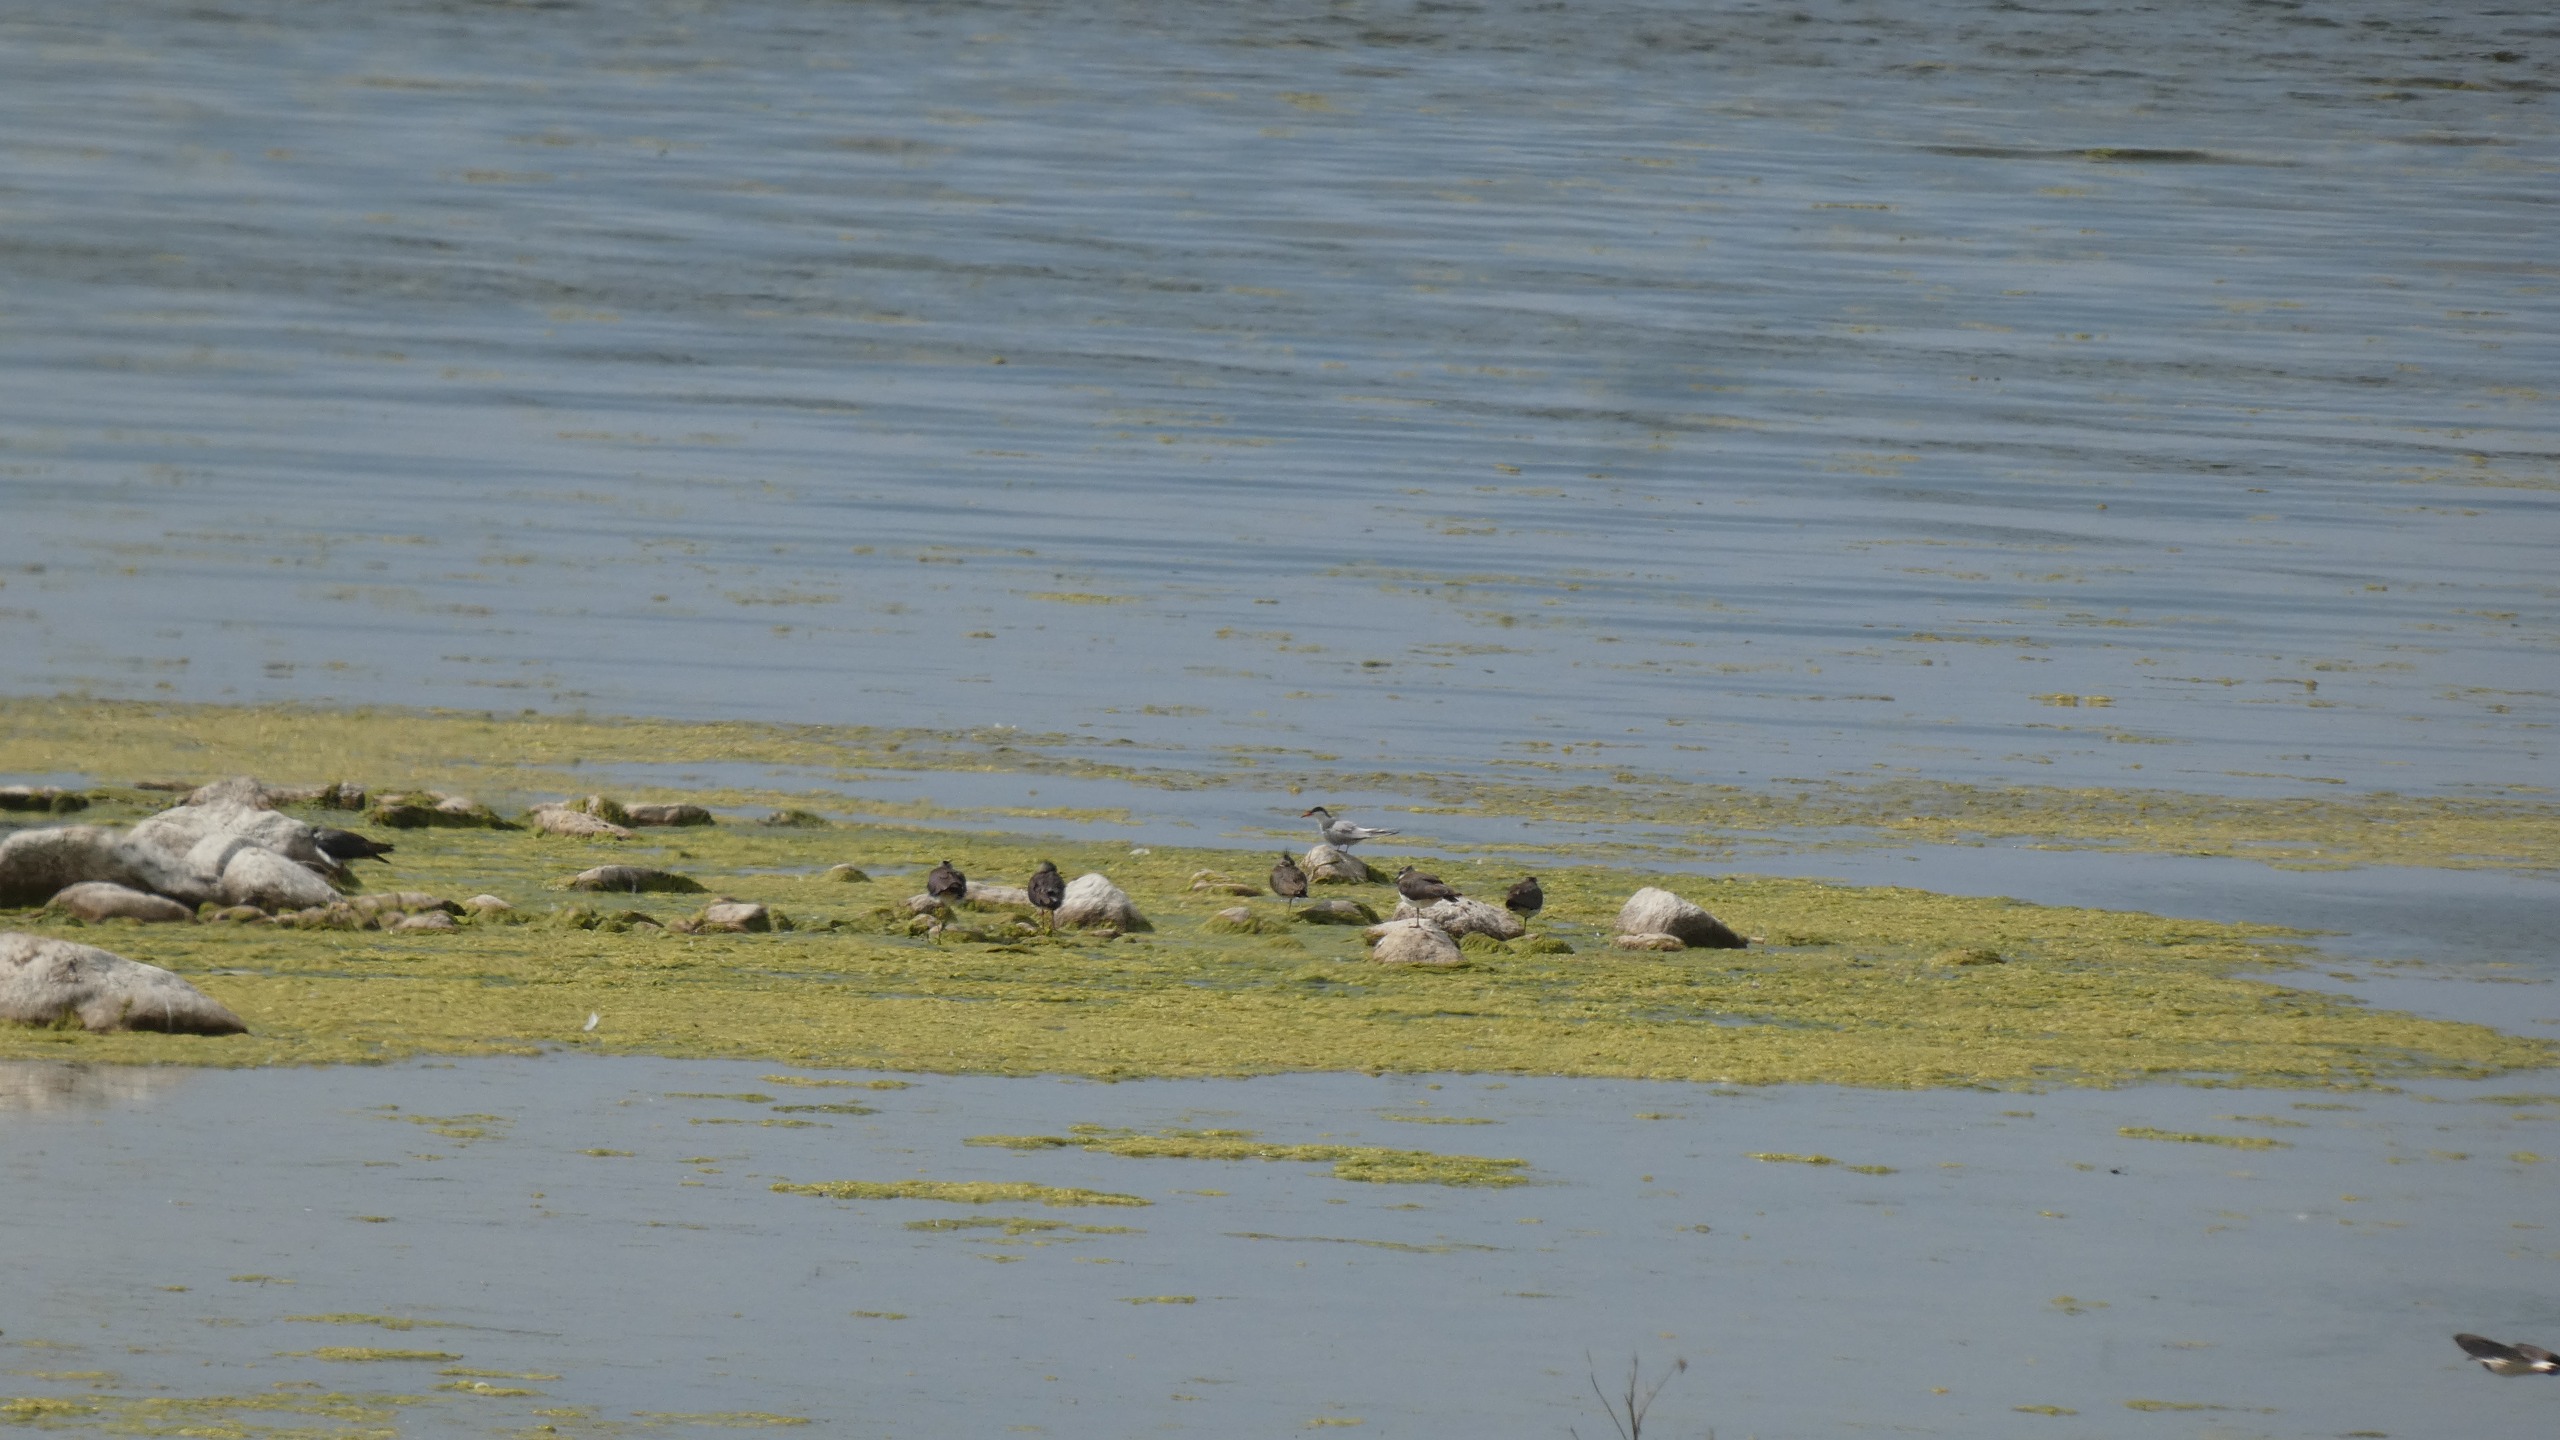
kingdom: Animalia
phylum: Chordata
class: Aves
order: Charadriiformes
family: Charadriidae
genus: Vanellus
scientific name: Vanellus vanellus
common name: Vibe
